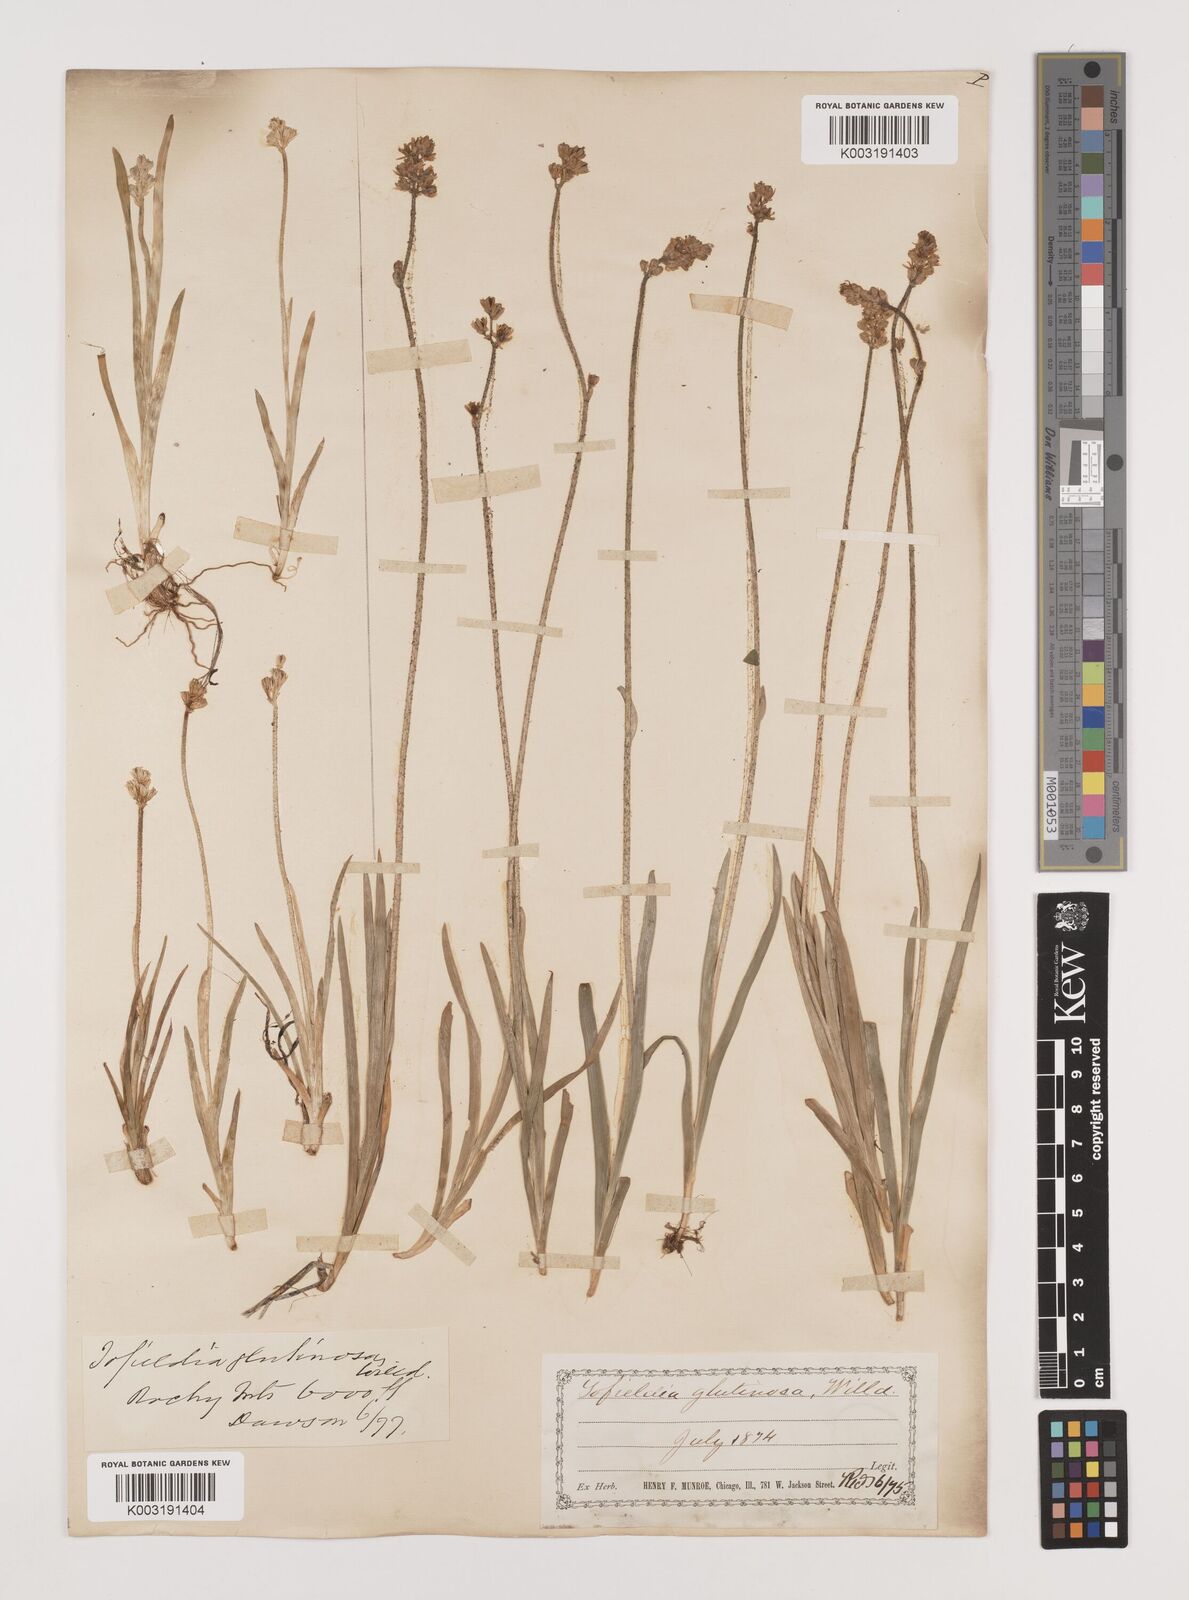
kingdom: Plantae
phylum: Tracheophyta
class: Liliopsida
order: Alismatales
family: Tofieldiaceae
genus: Triantha
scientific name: Triantha glutinosa
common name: Glutinous tofieldia
